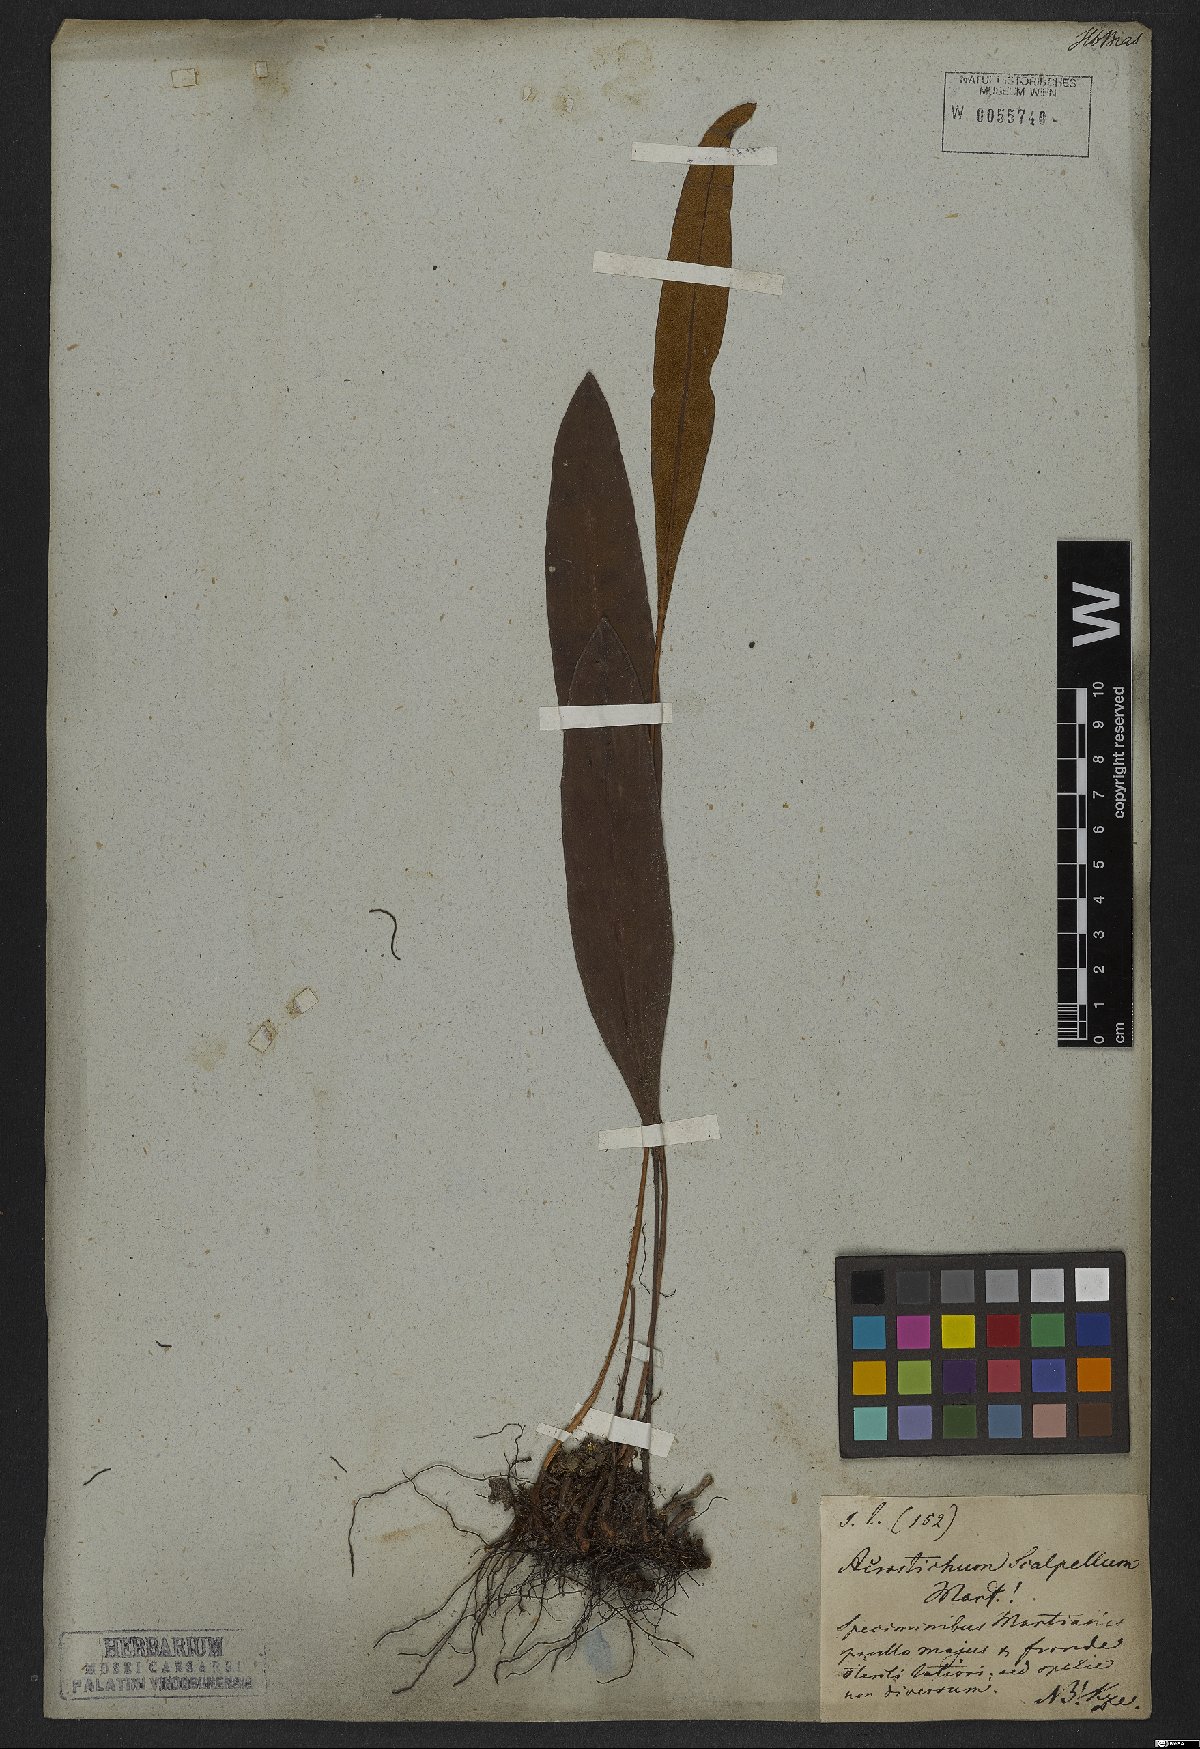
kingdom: Plantae
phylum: Tracheophyta
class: Polypodiopsida
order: Polypodiales
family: Dryopteridaceae
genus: Elaphoglossum
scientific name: Elaphoglossum latifolium
